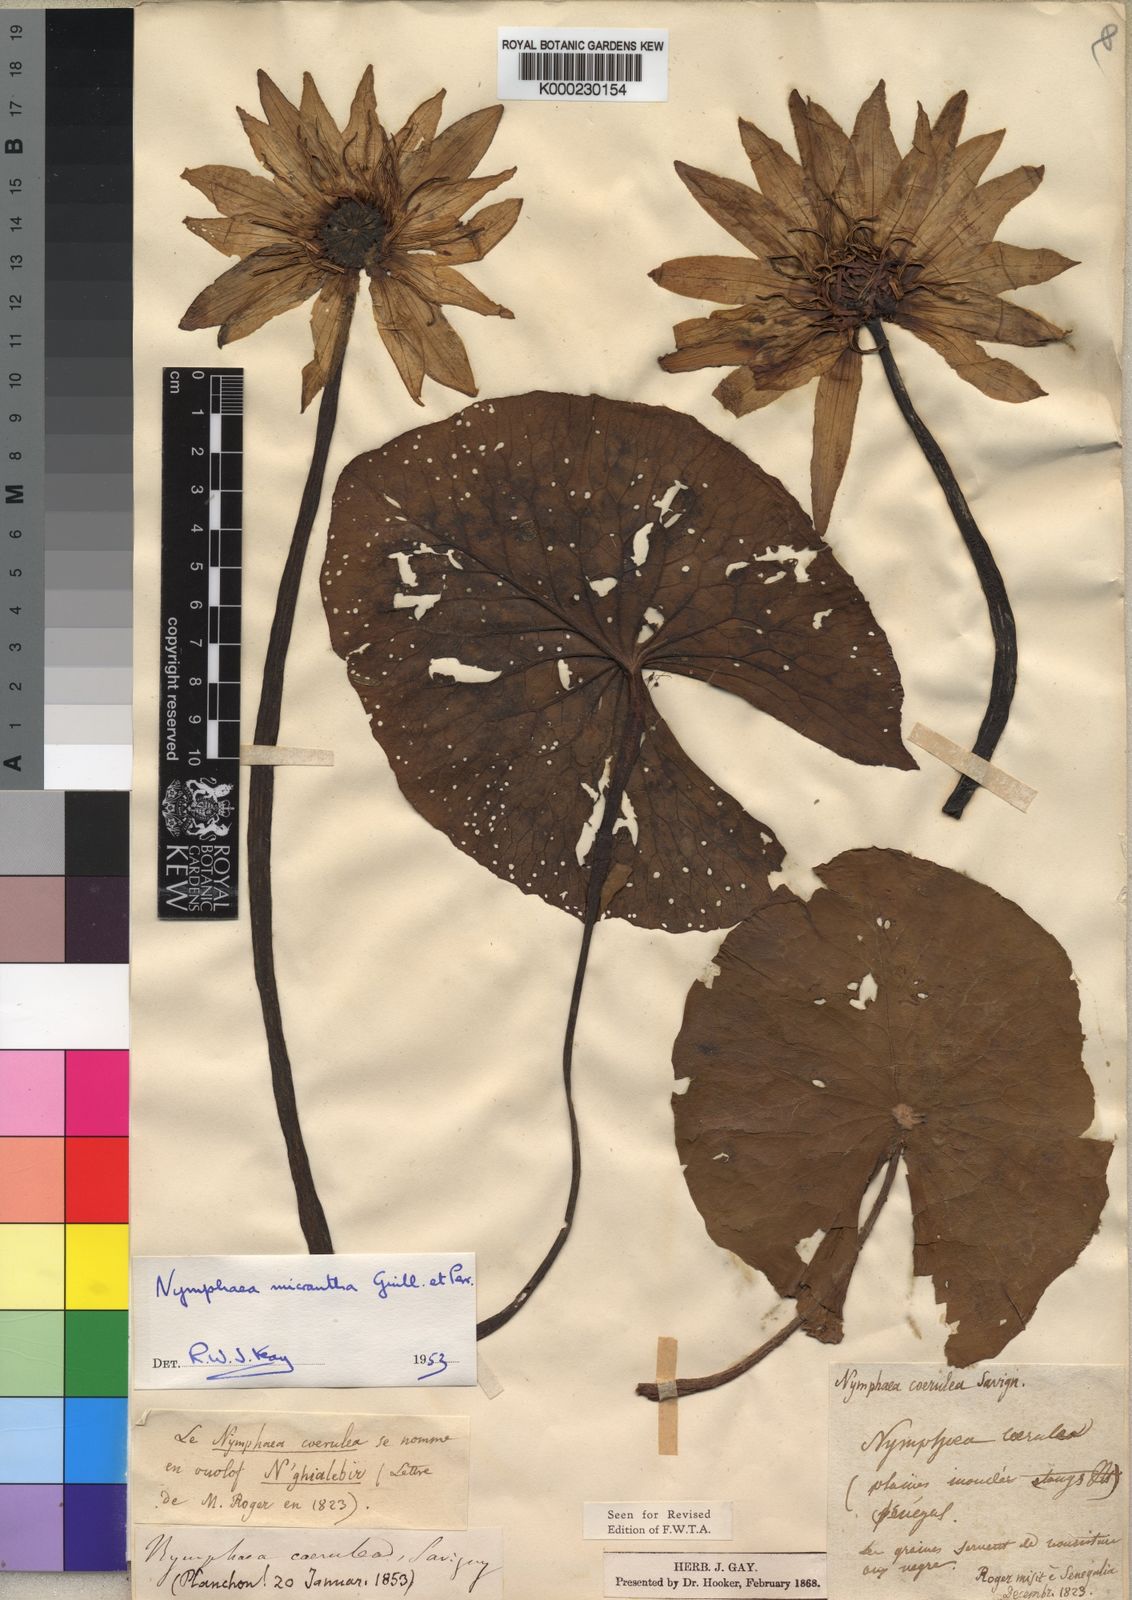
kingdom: Plantae
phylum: Tracheophyta
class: Magnoliopsida
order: Nymphaeales
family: Nymphaeaceae
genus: Nymphaea
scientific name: Nymphaea micrantha
